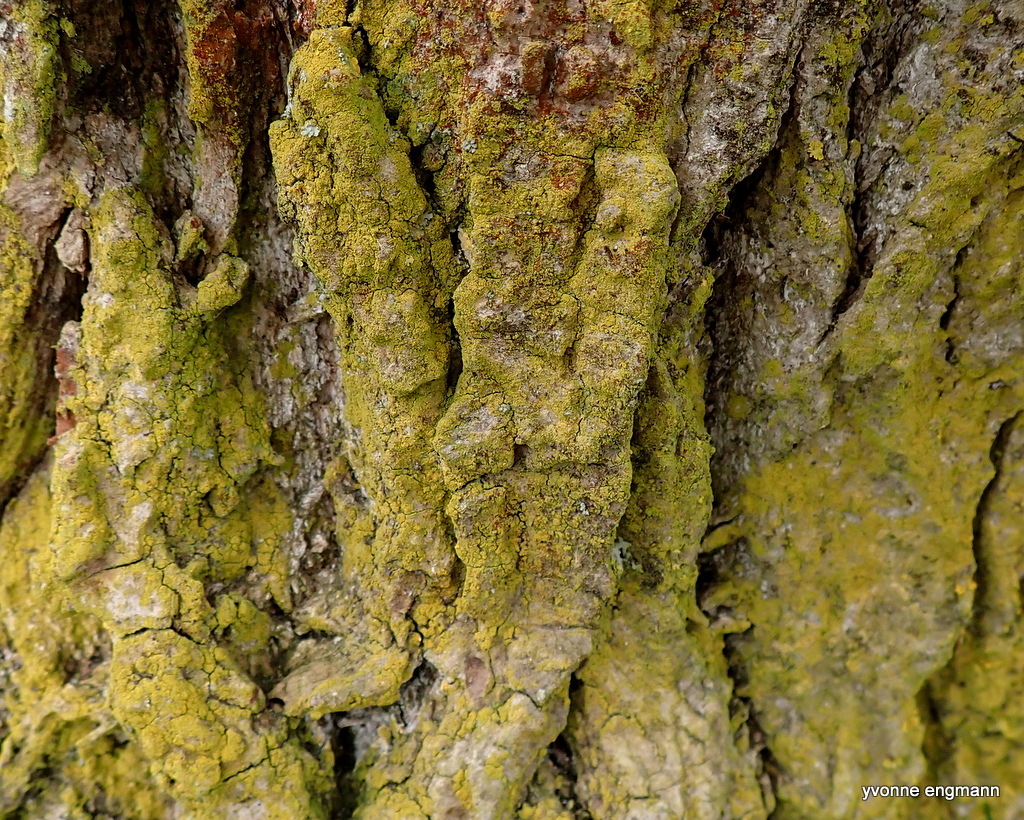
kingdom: Fungi
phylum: Ascomycota
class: Lecanoromycetes
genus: Scythioria
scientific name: Scythioria phlogina
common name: flammet orangelav
